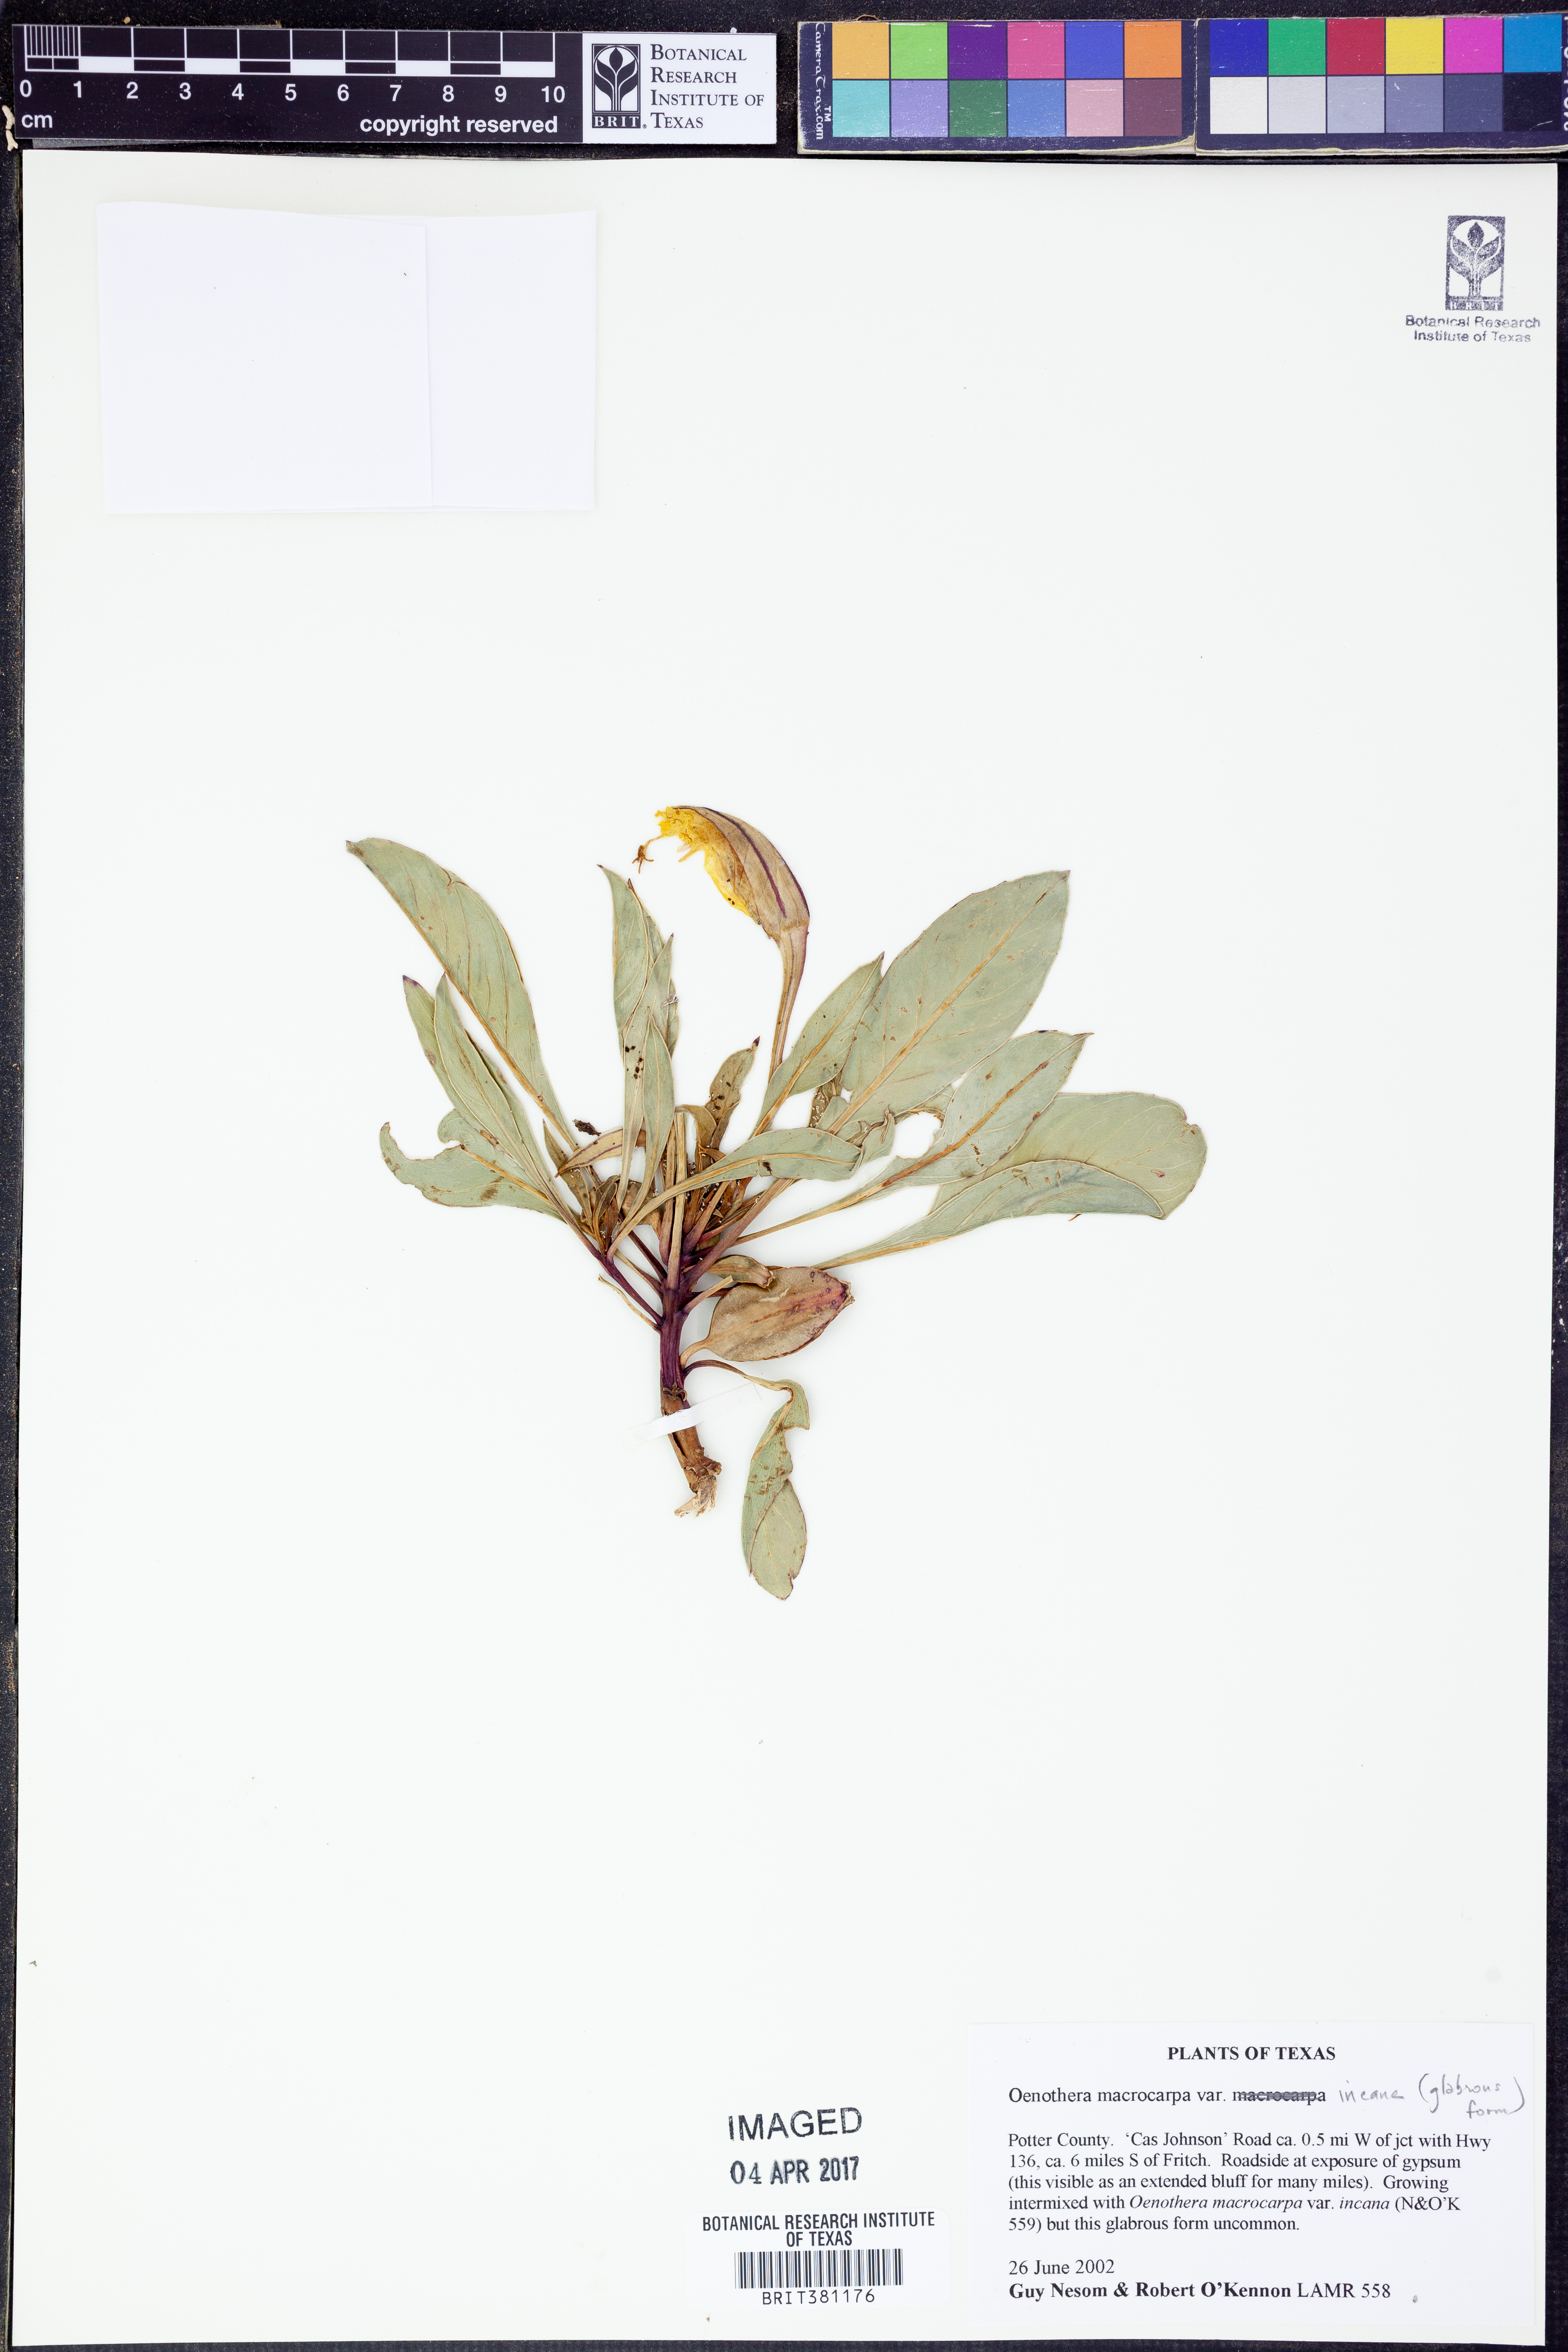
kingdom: Plantae
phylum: Tracheophyta
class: Magnoliopsida
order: Myrtales
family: Onagraceae
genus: Oenothera
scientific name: Oenothera macrocarpa
